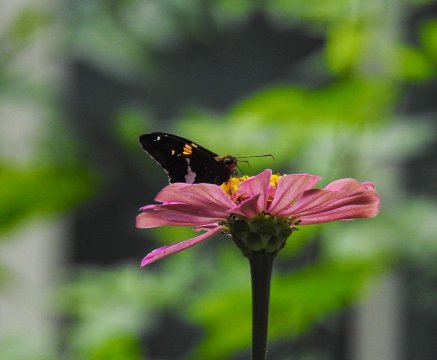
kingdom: Animalia
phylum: Arthropoda
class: Insecta
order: Lepidoptera
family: Hesperiidae
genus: Epargyreus
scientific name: Epargyreus clarus
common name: Silver-spotted Skipper
